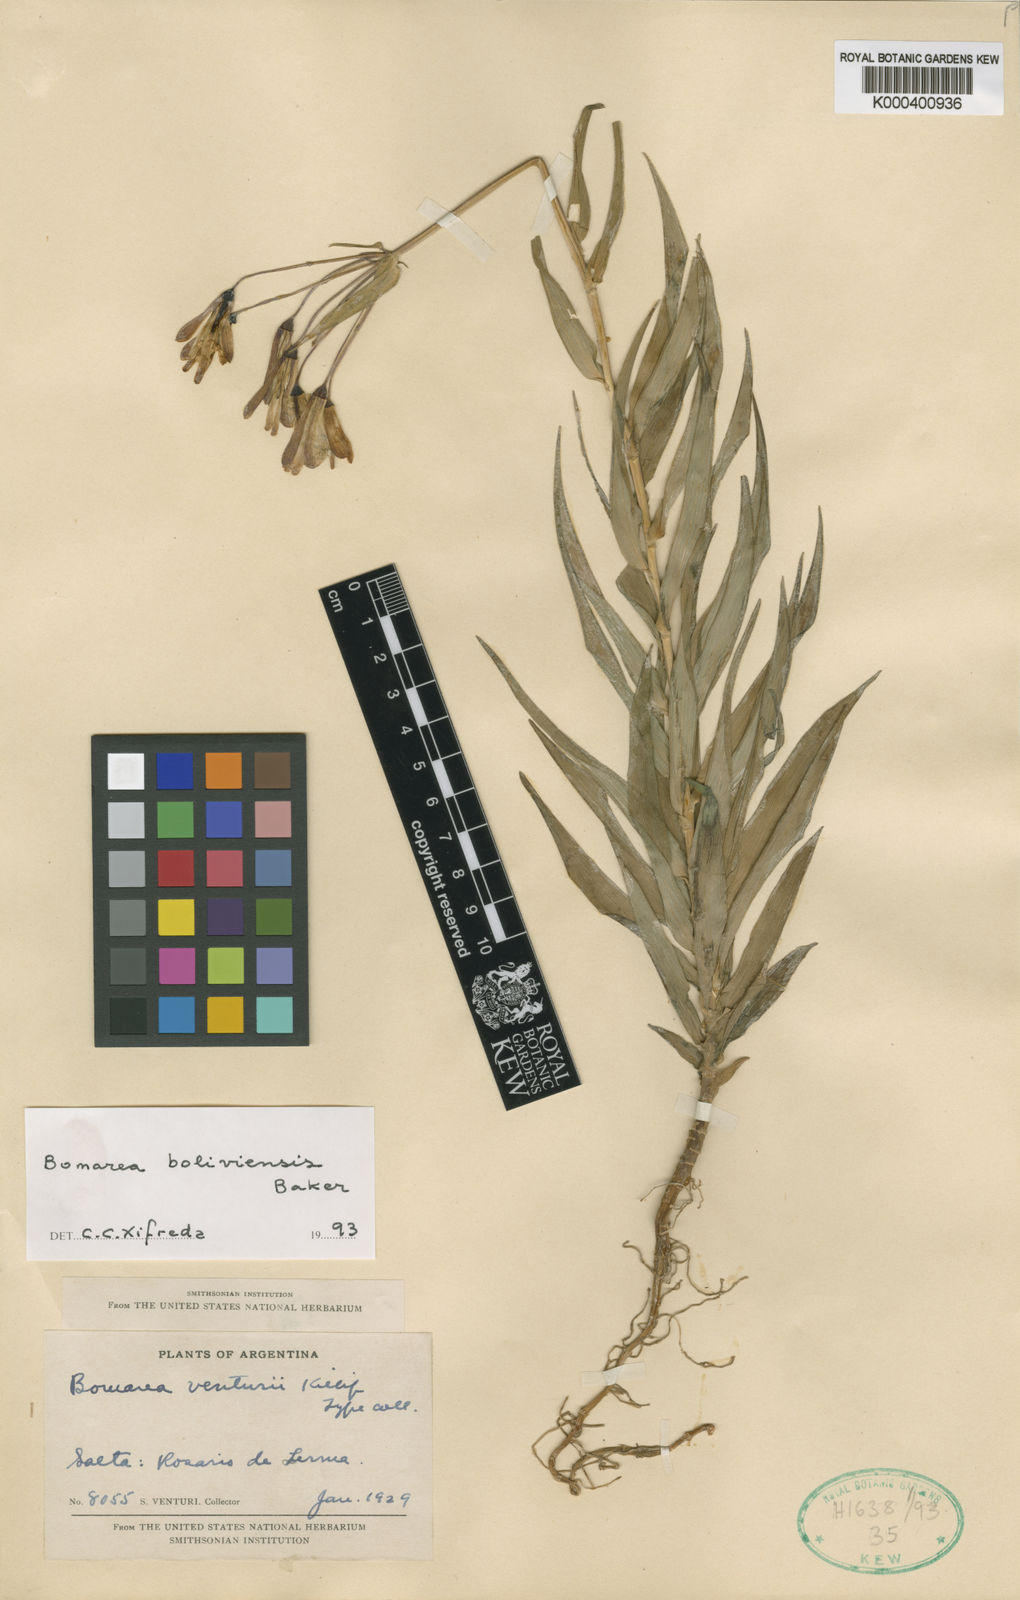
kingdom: Plantae
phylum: Tracheophyta
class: Liliopsida
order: Liliales
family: Alstroemeriaceae
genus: Bomarea
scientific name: Bomarea boliviensis
